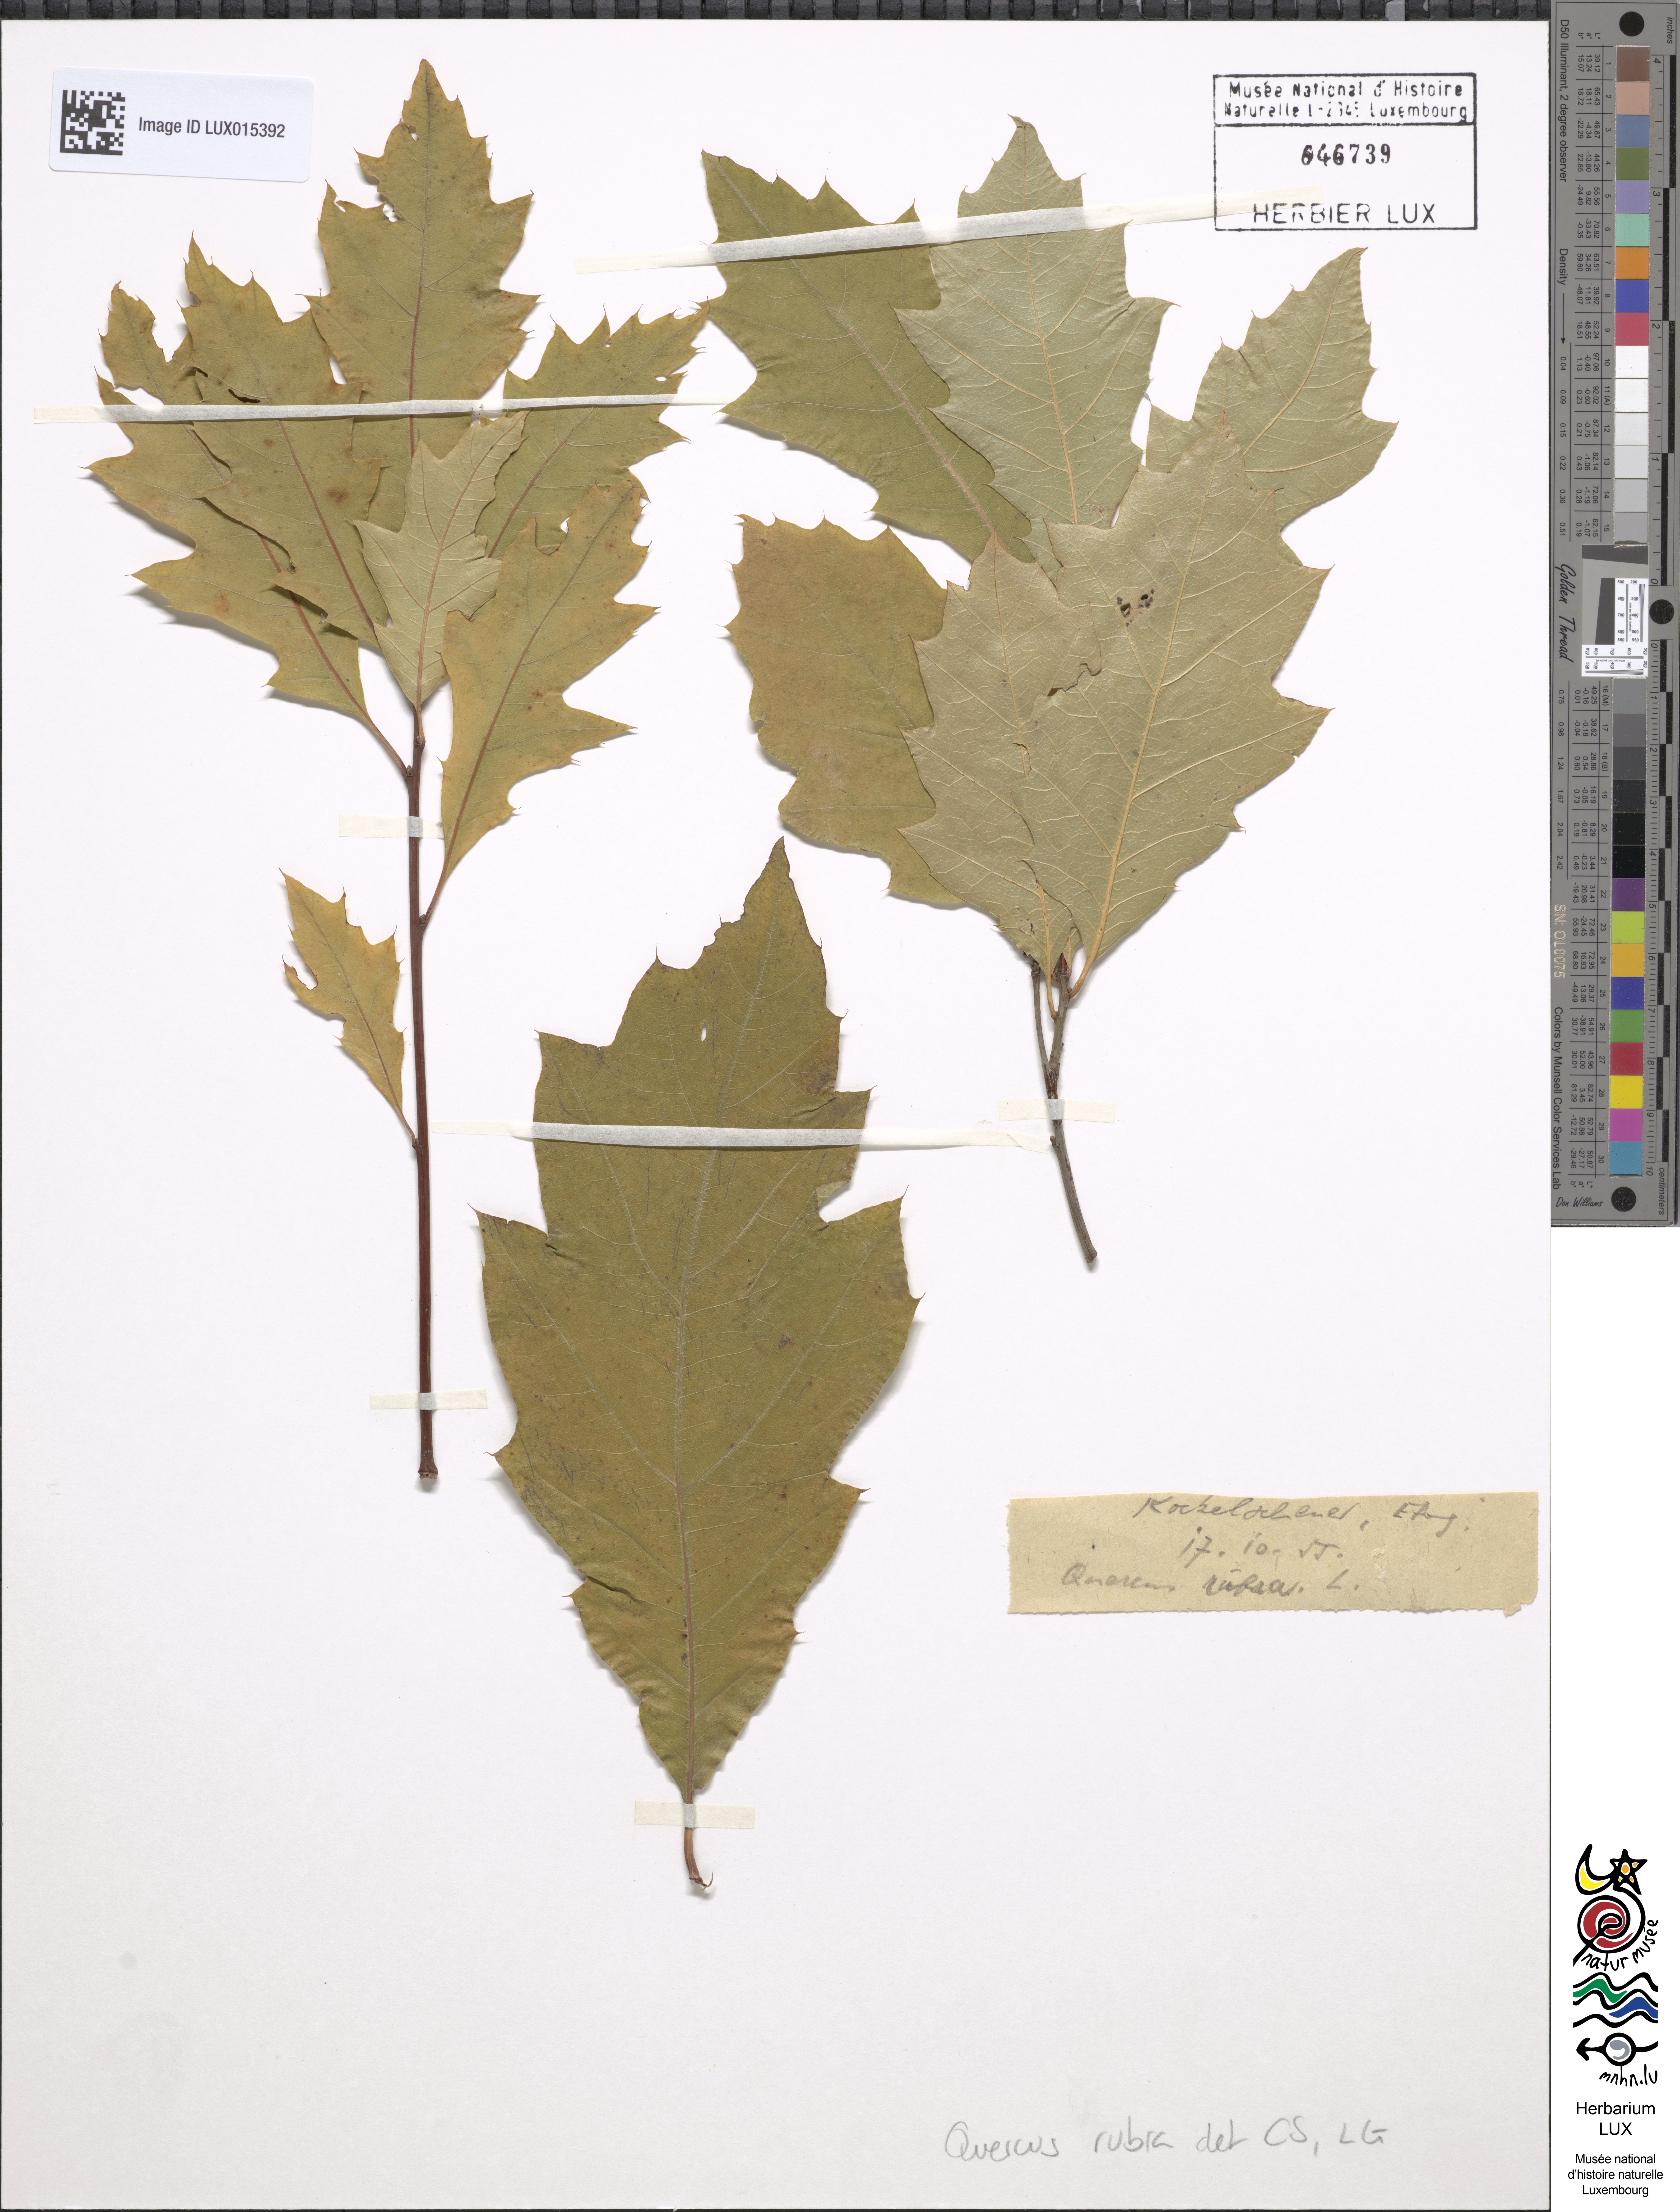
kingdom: Plantae
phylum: Tracheophyta
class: Magnoliopsida
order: Fagales
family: Fagaceae
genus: Quercus
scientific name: Quercus rubra
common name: Red oak
